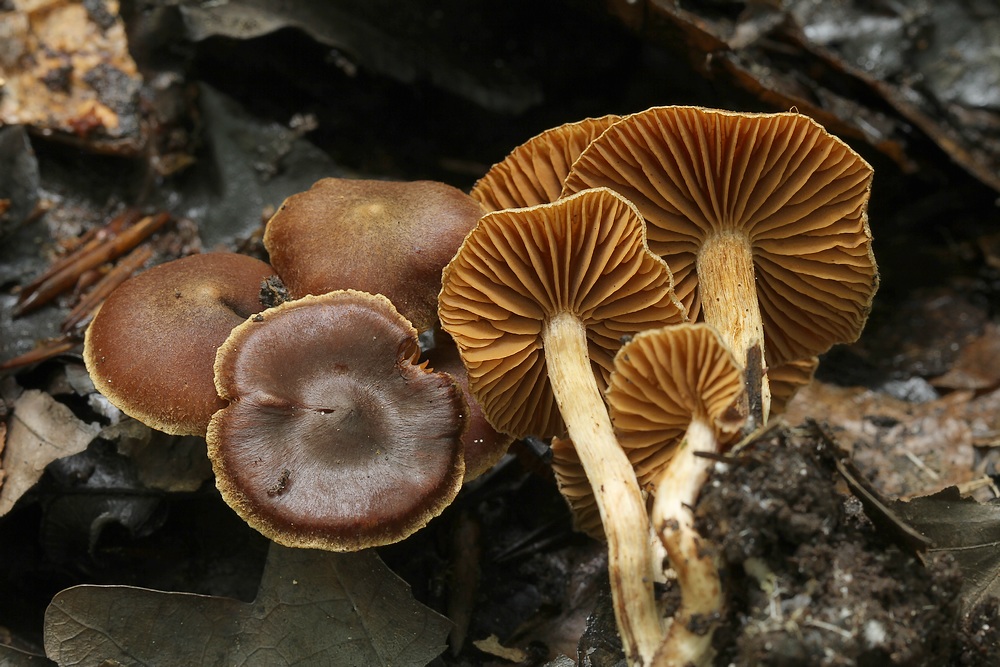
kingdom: Fungi
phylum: Basidiomycota
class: Agaricomycetes
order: Agaricales
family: Cortinariaceae
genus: Cortinarius
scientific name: Cortinarius
